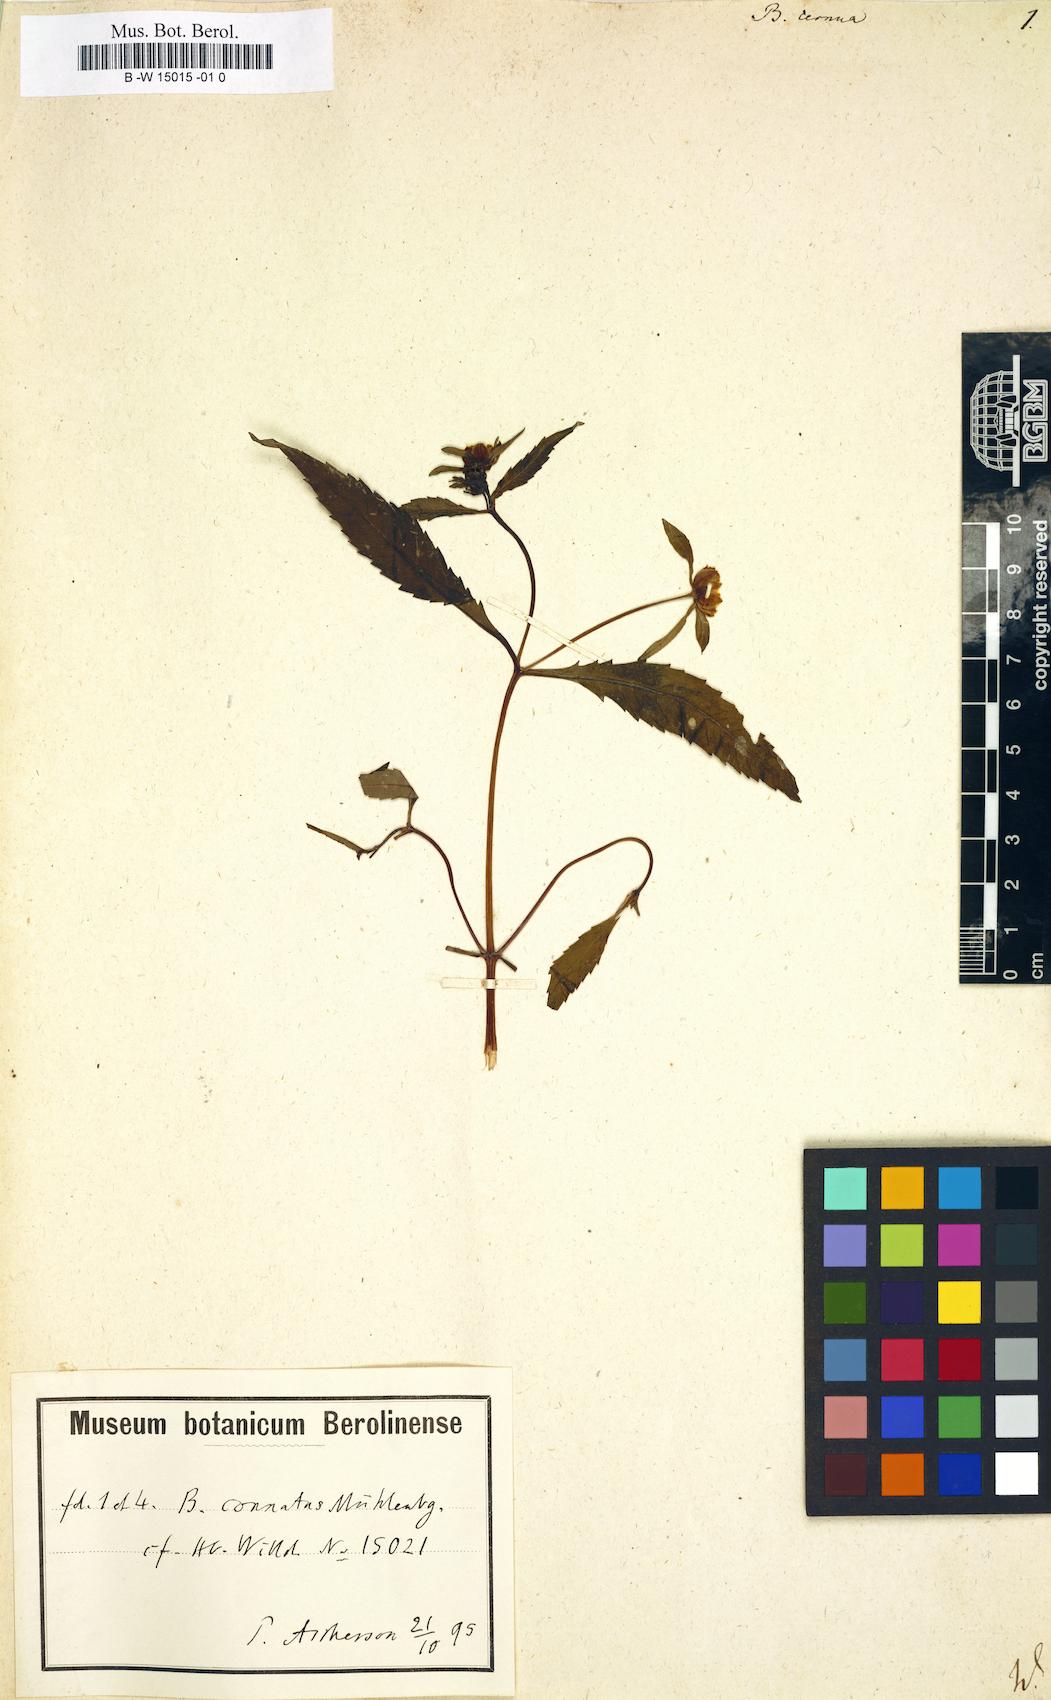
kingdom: Plantae
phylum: Tracheophyta
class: Magnoliopsida
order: Asterales
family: Asteraceae
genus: Bidens
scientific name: Bidens cernua
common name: Nodding bur-marigold
